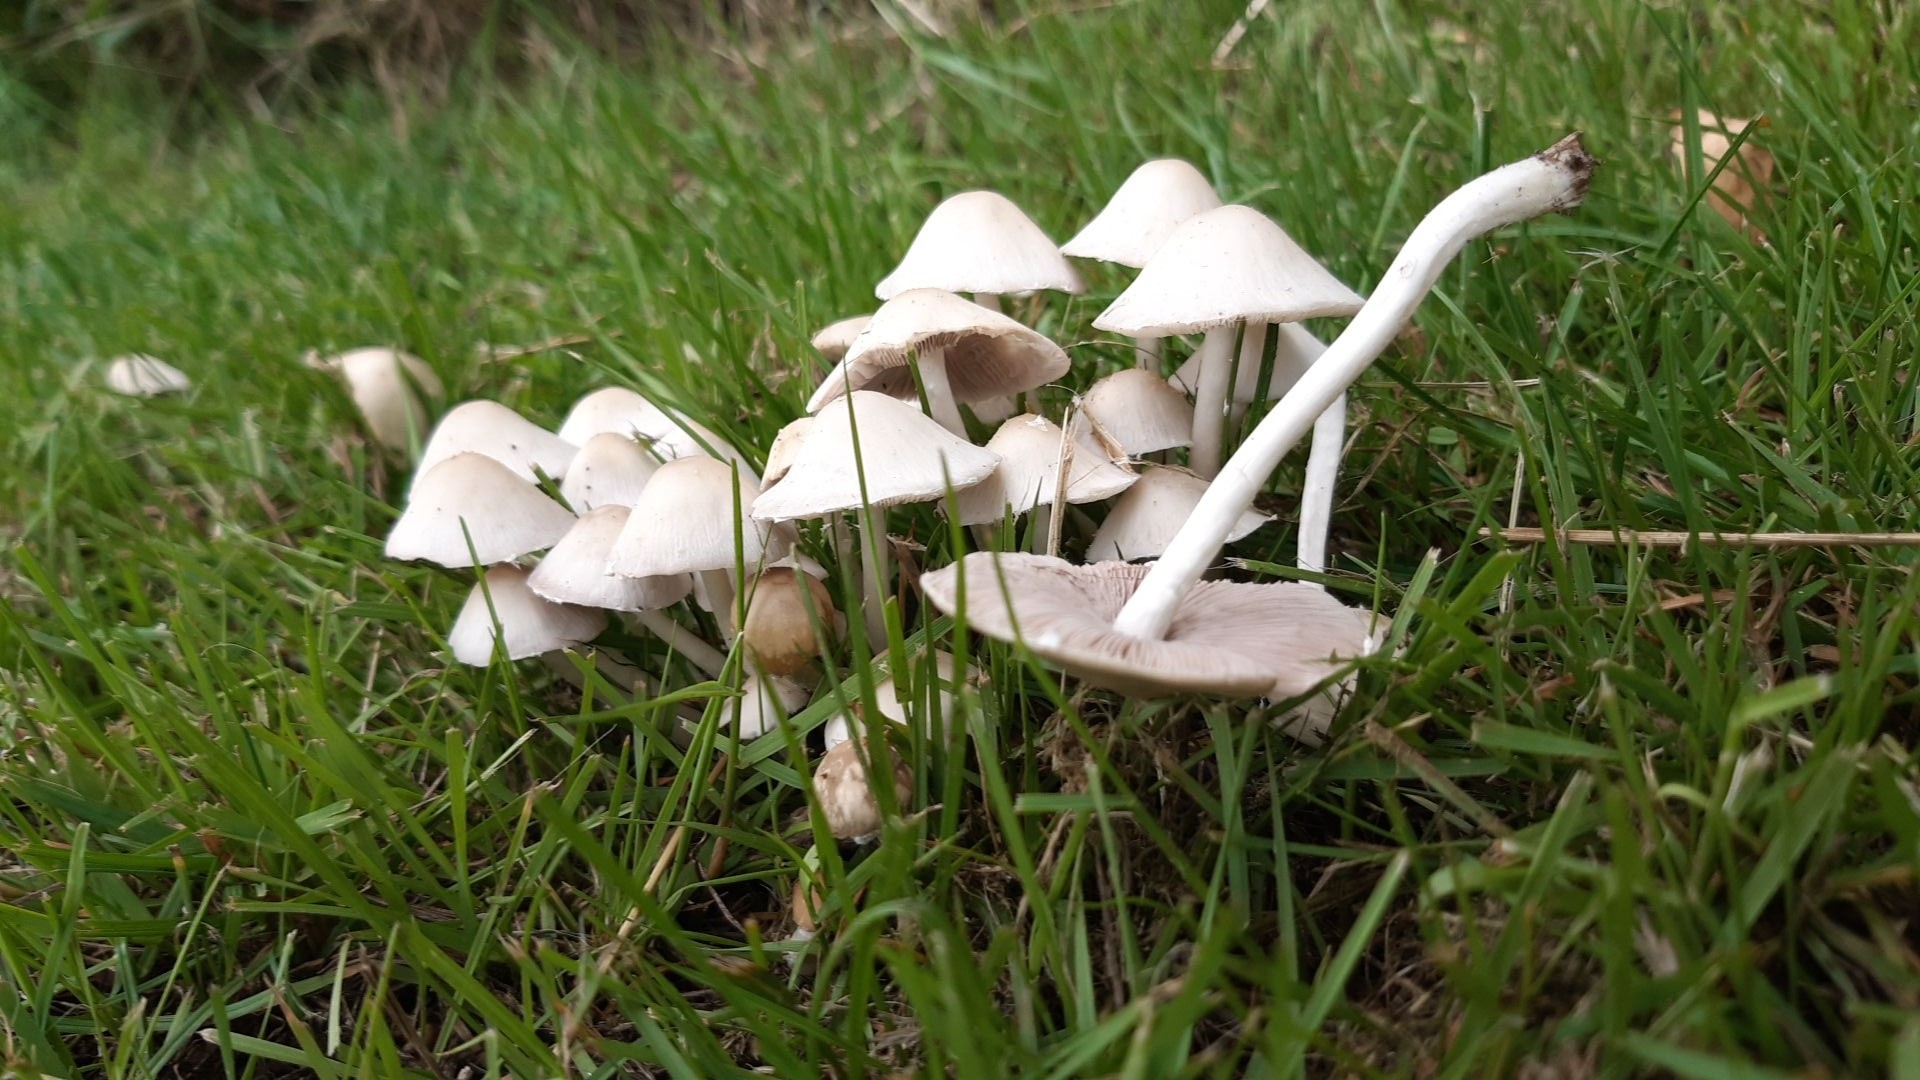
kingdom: Fungi
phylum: Basidiomycota
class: Agaricomycetes
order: Agaricales
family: Psathyrellaceae
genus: Candolleomyces
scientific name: Candolleomyces candolleanus
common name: Candolles mørkhat
